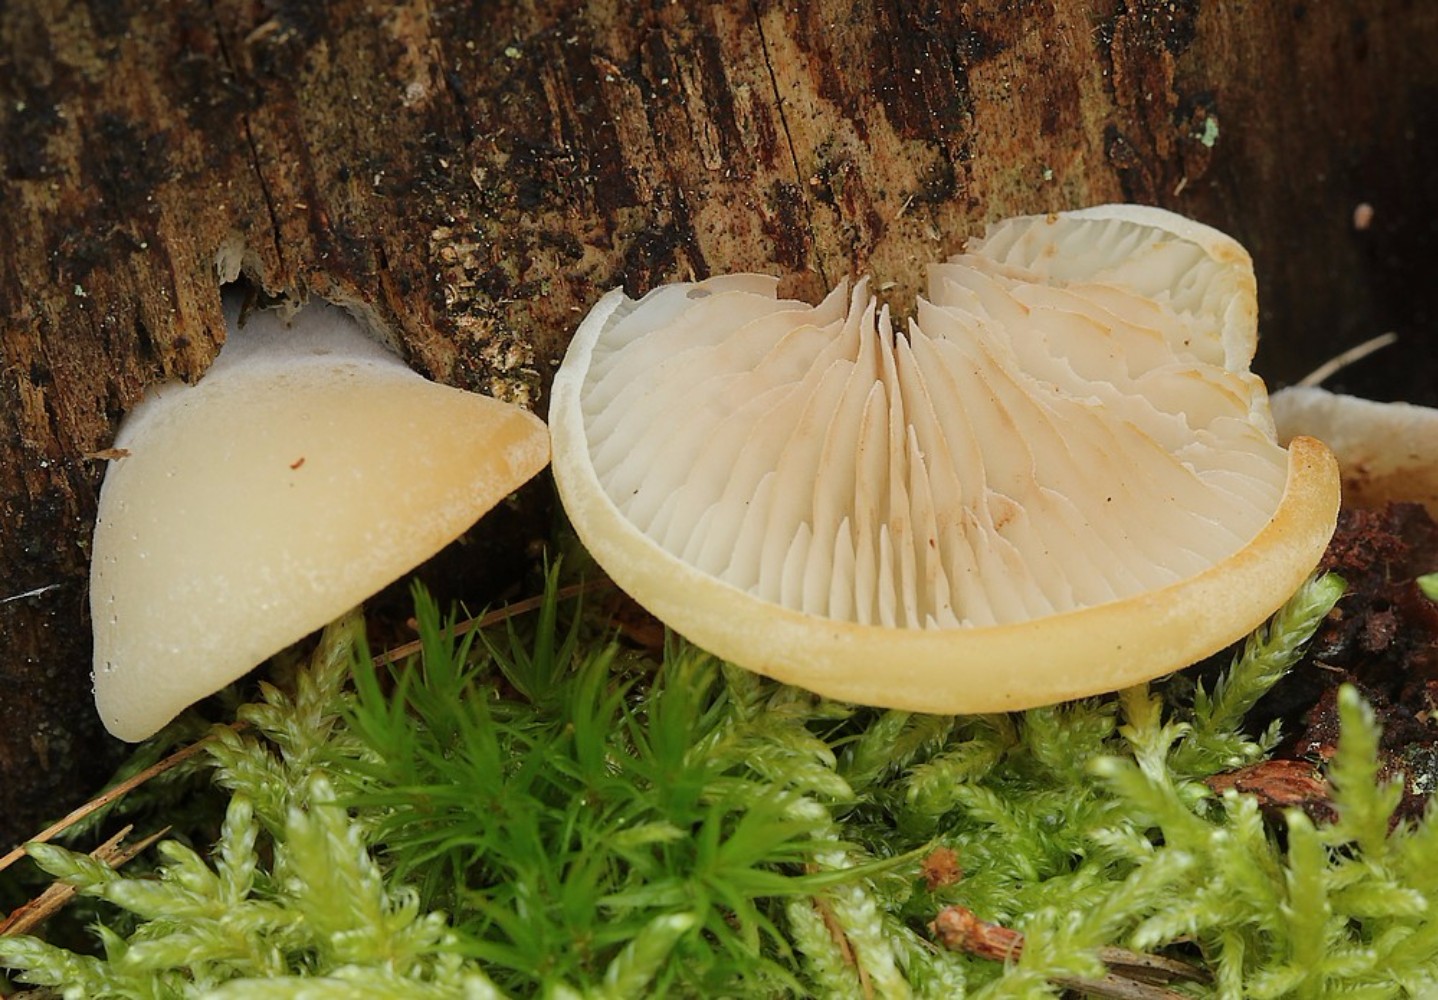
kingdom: Fungi
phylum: Basidiomycota
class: Agaricomycetes
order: Agaricales
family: Crepidotaceae
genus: Crepidotus
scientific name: Crepidotus stenocystis
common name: nåletræs-muslingesvamp
